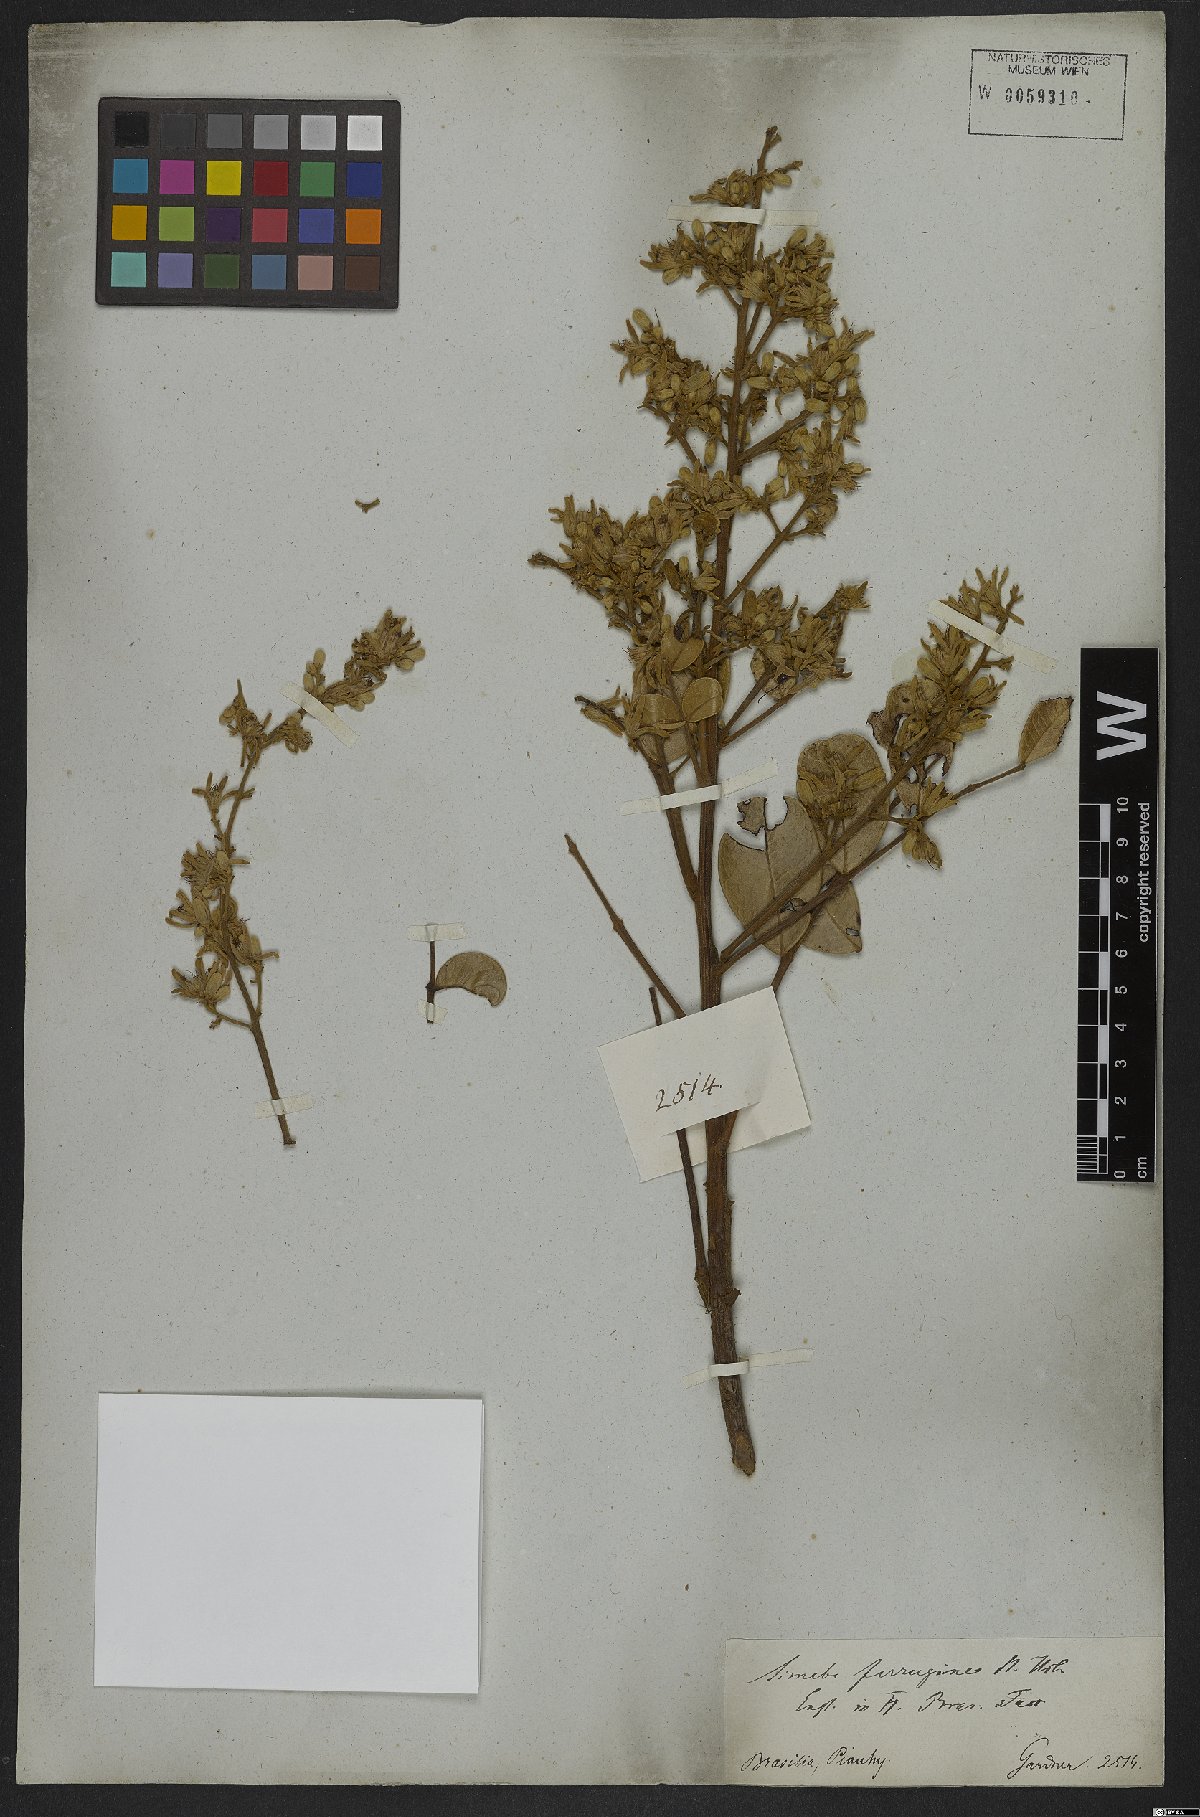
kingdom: Plantae
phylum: Tracheophyta
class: Magnoliopsida
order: Sapindales
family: Simaroubaceae
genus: Homalolepis
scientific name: Homalolepis ferruginea
